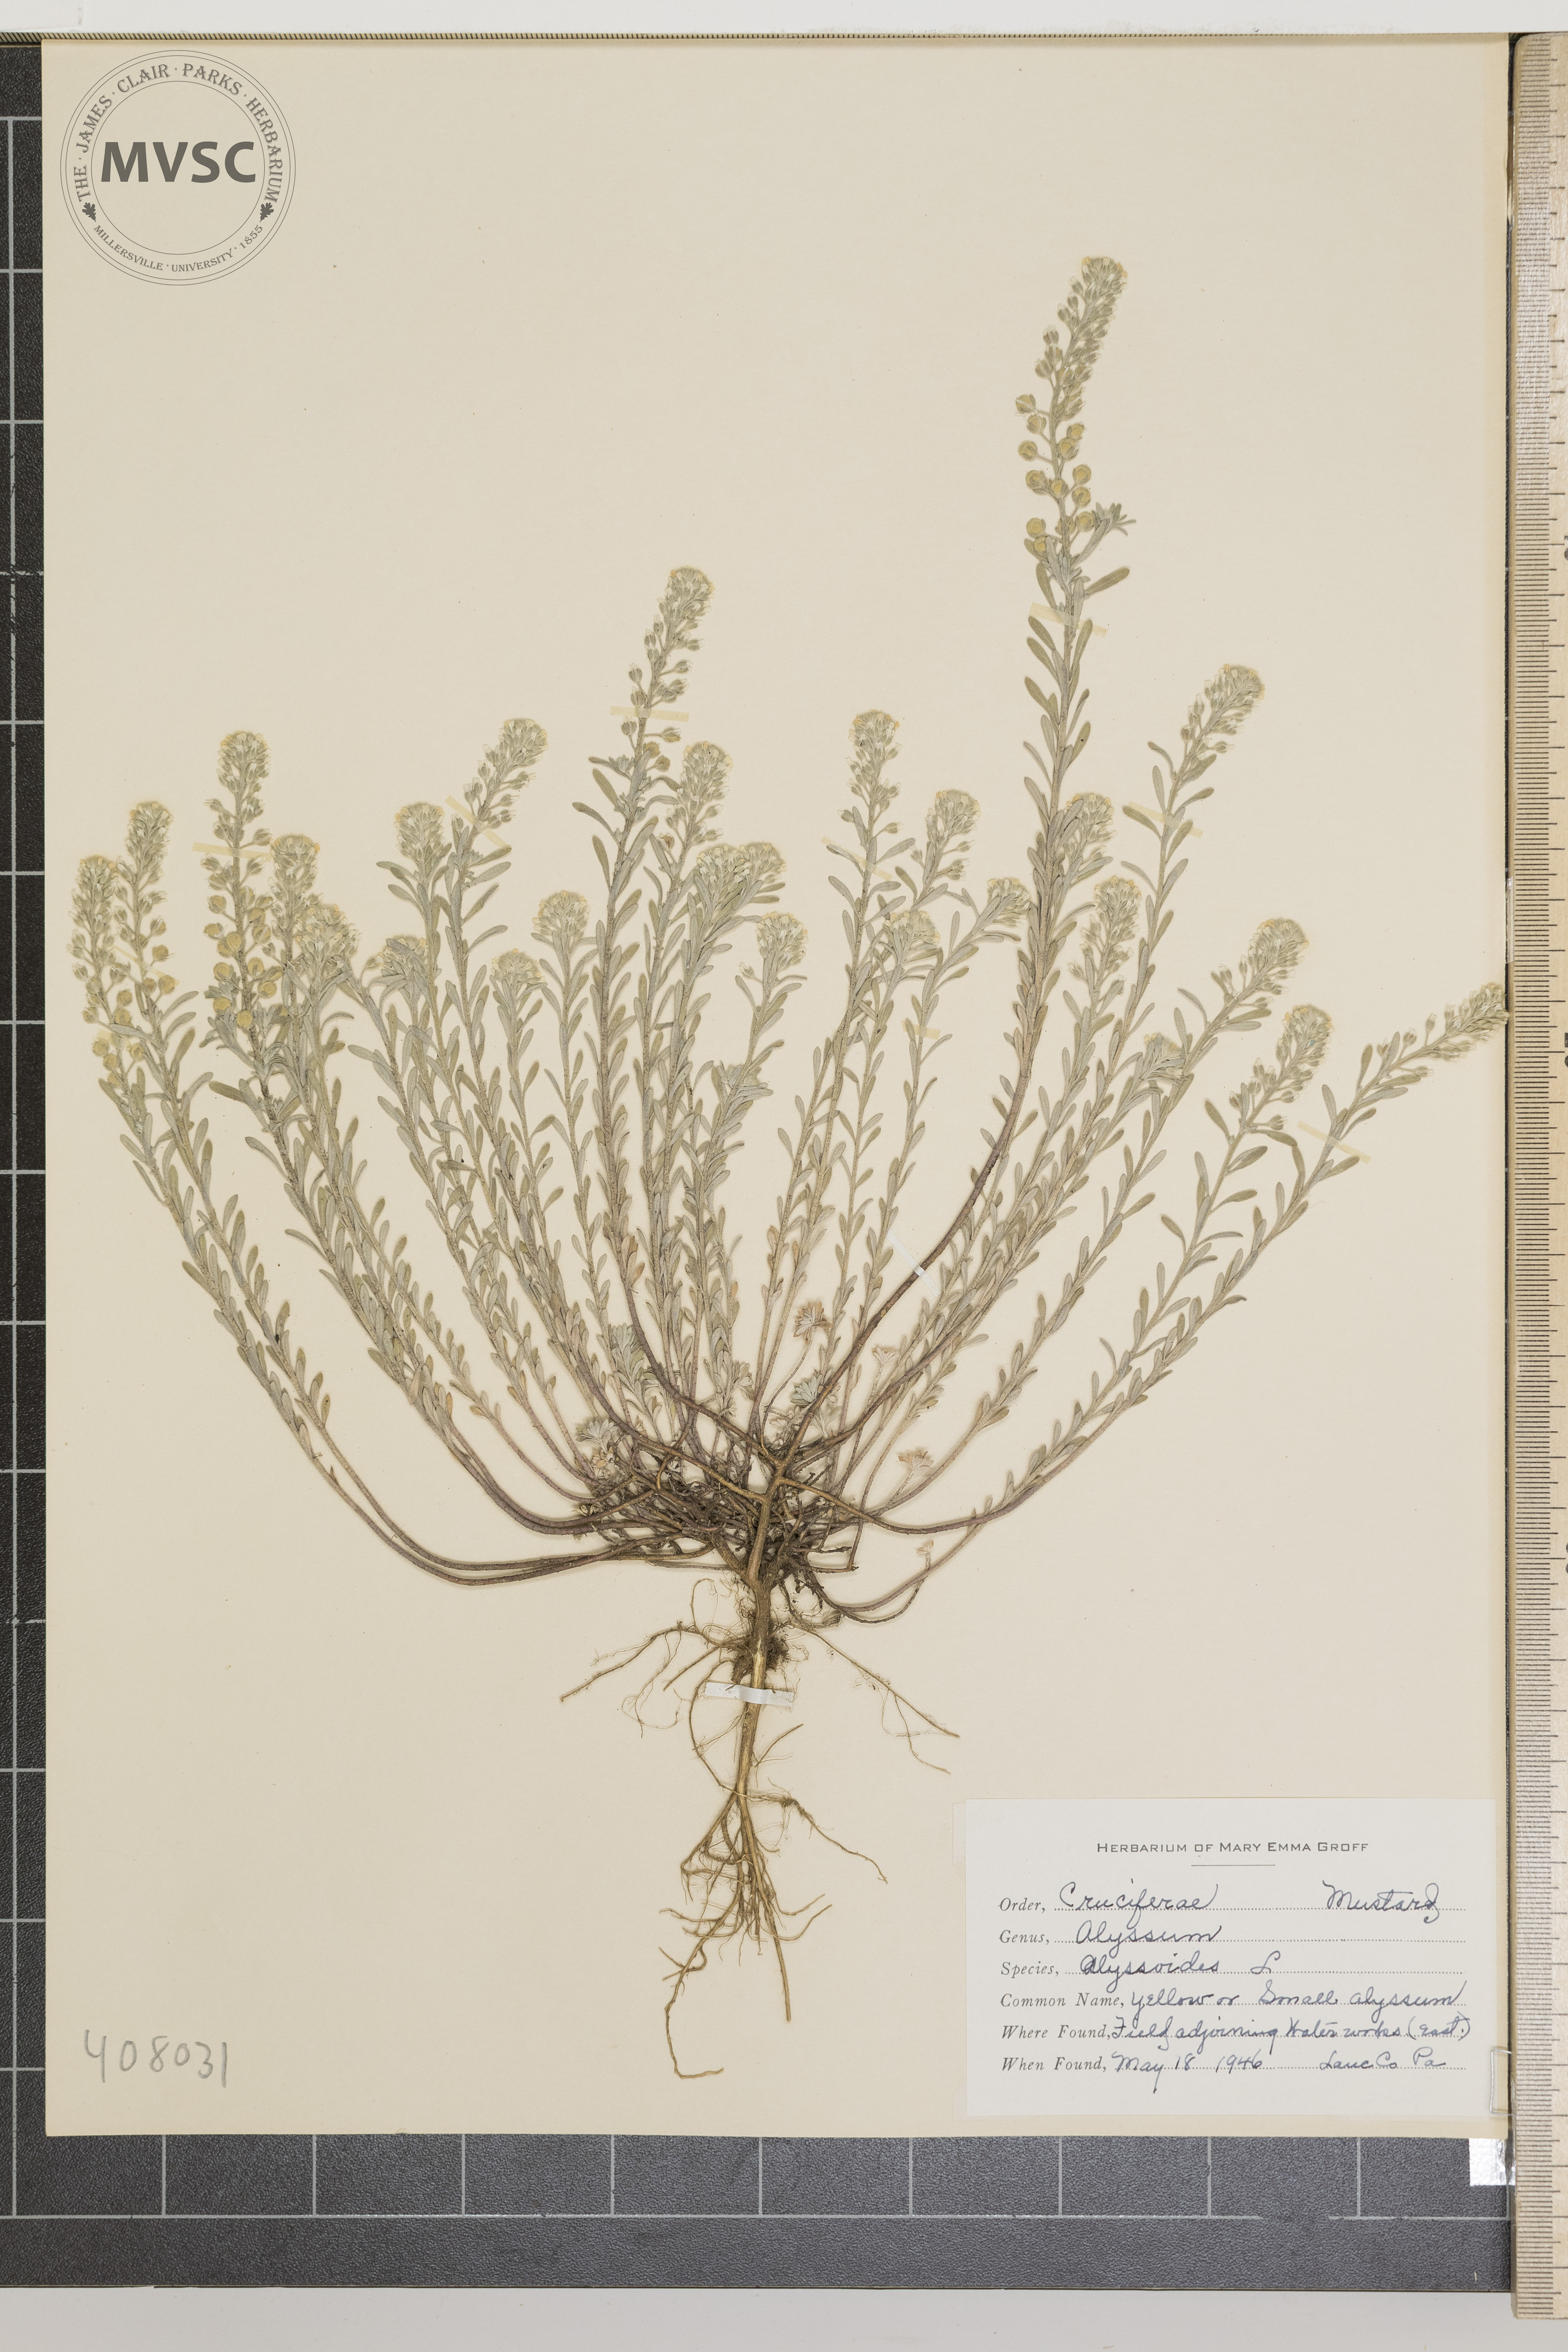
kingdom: Plantae
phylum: Tracheophyta
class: Magnoliopsida
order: Brassicales
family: Brassicaceae
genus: Alyssum
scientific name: Alyssum alyssoides
